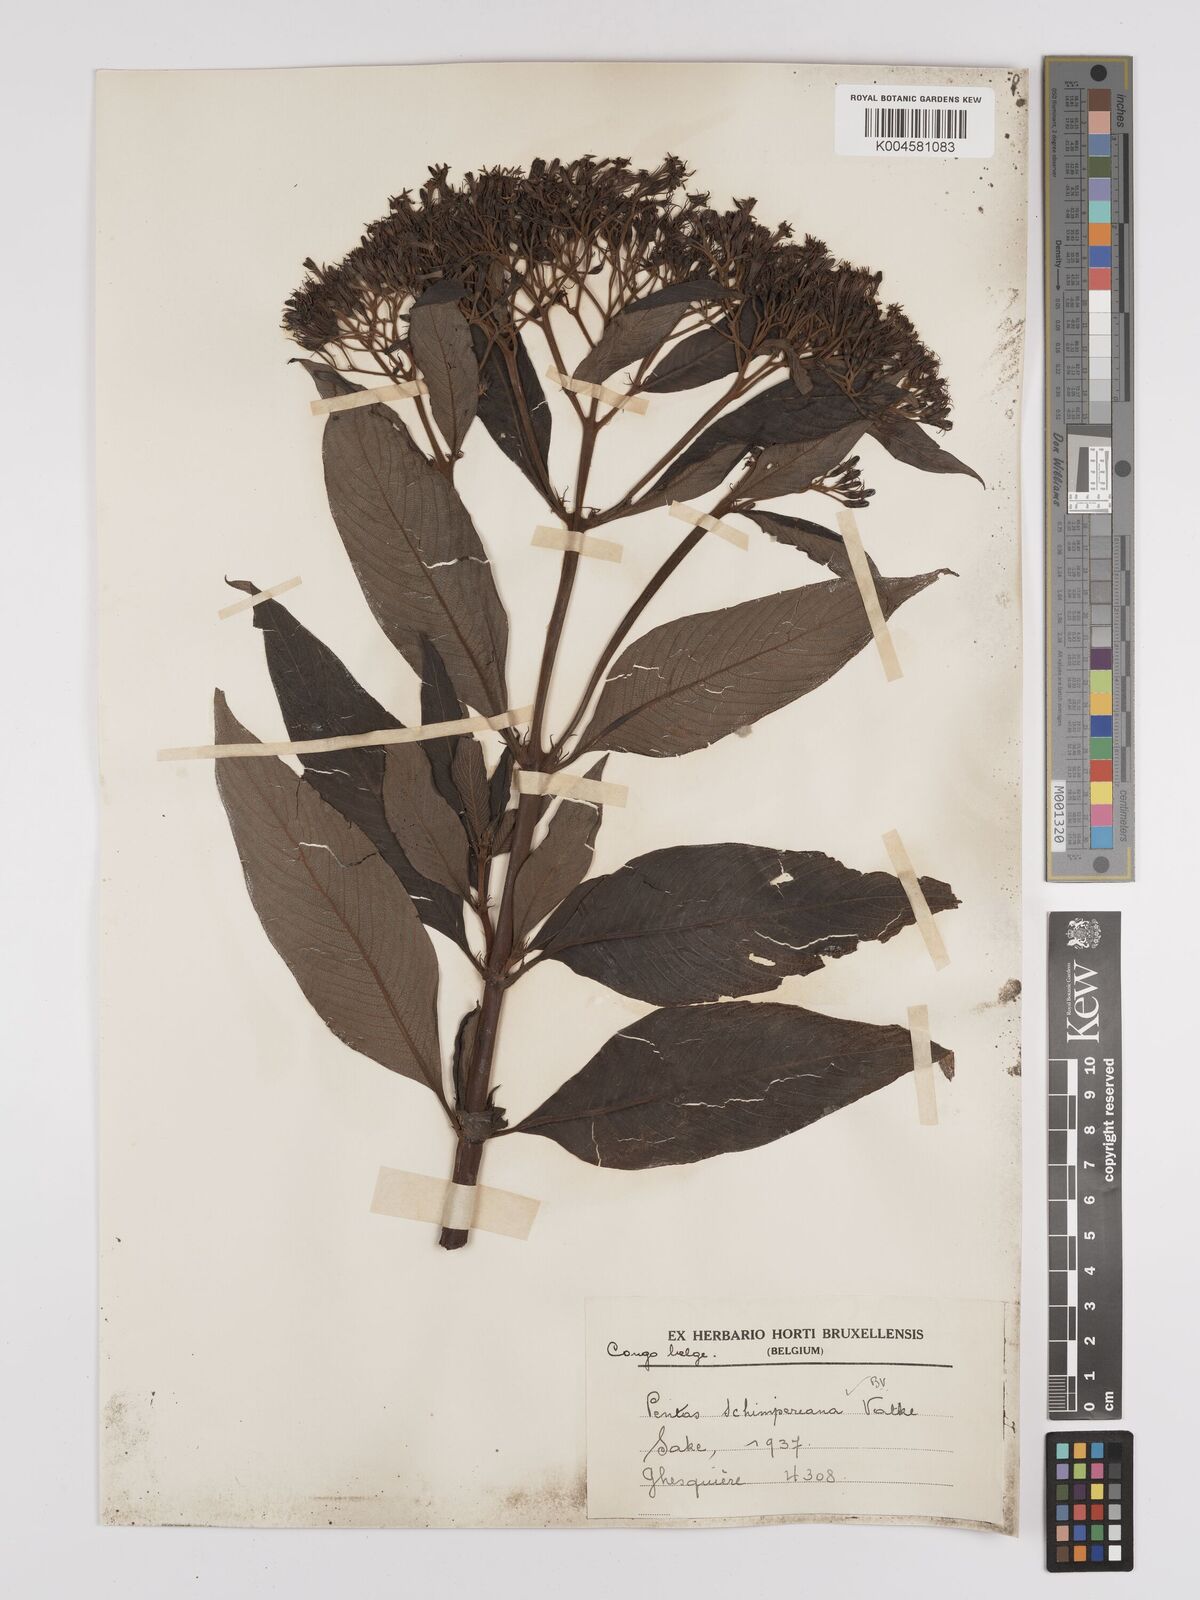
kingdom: Plantae
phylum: Tracheophyta
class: Magnoliopsida
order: Gentianales
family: Rubiaceae
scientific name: Rubiaceae
